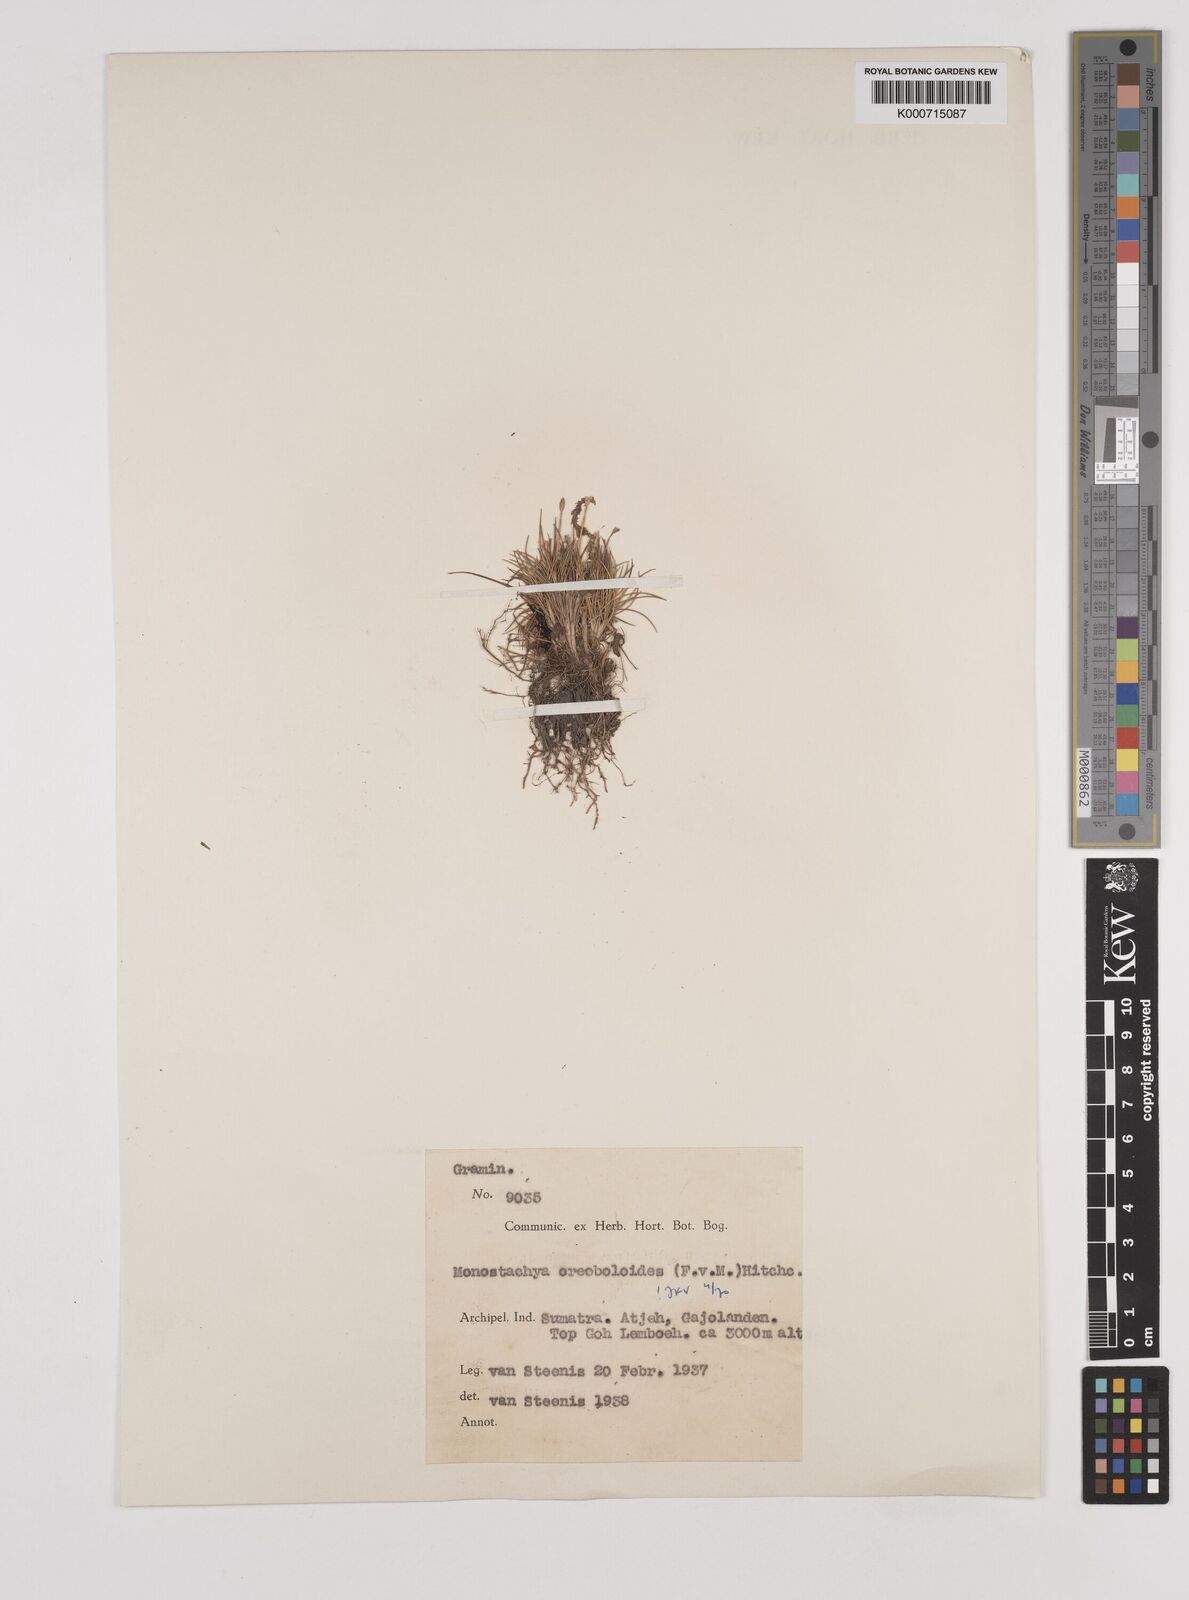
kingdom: Plantae
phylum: Tracheophyta
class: Liliopsida
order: Poales
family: Poaceae
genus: Rytidosperma
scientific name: Rytidosperma oreoboloides
